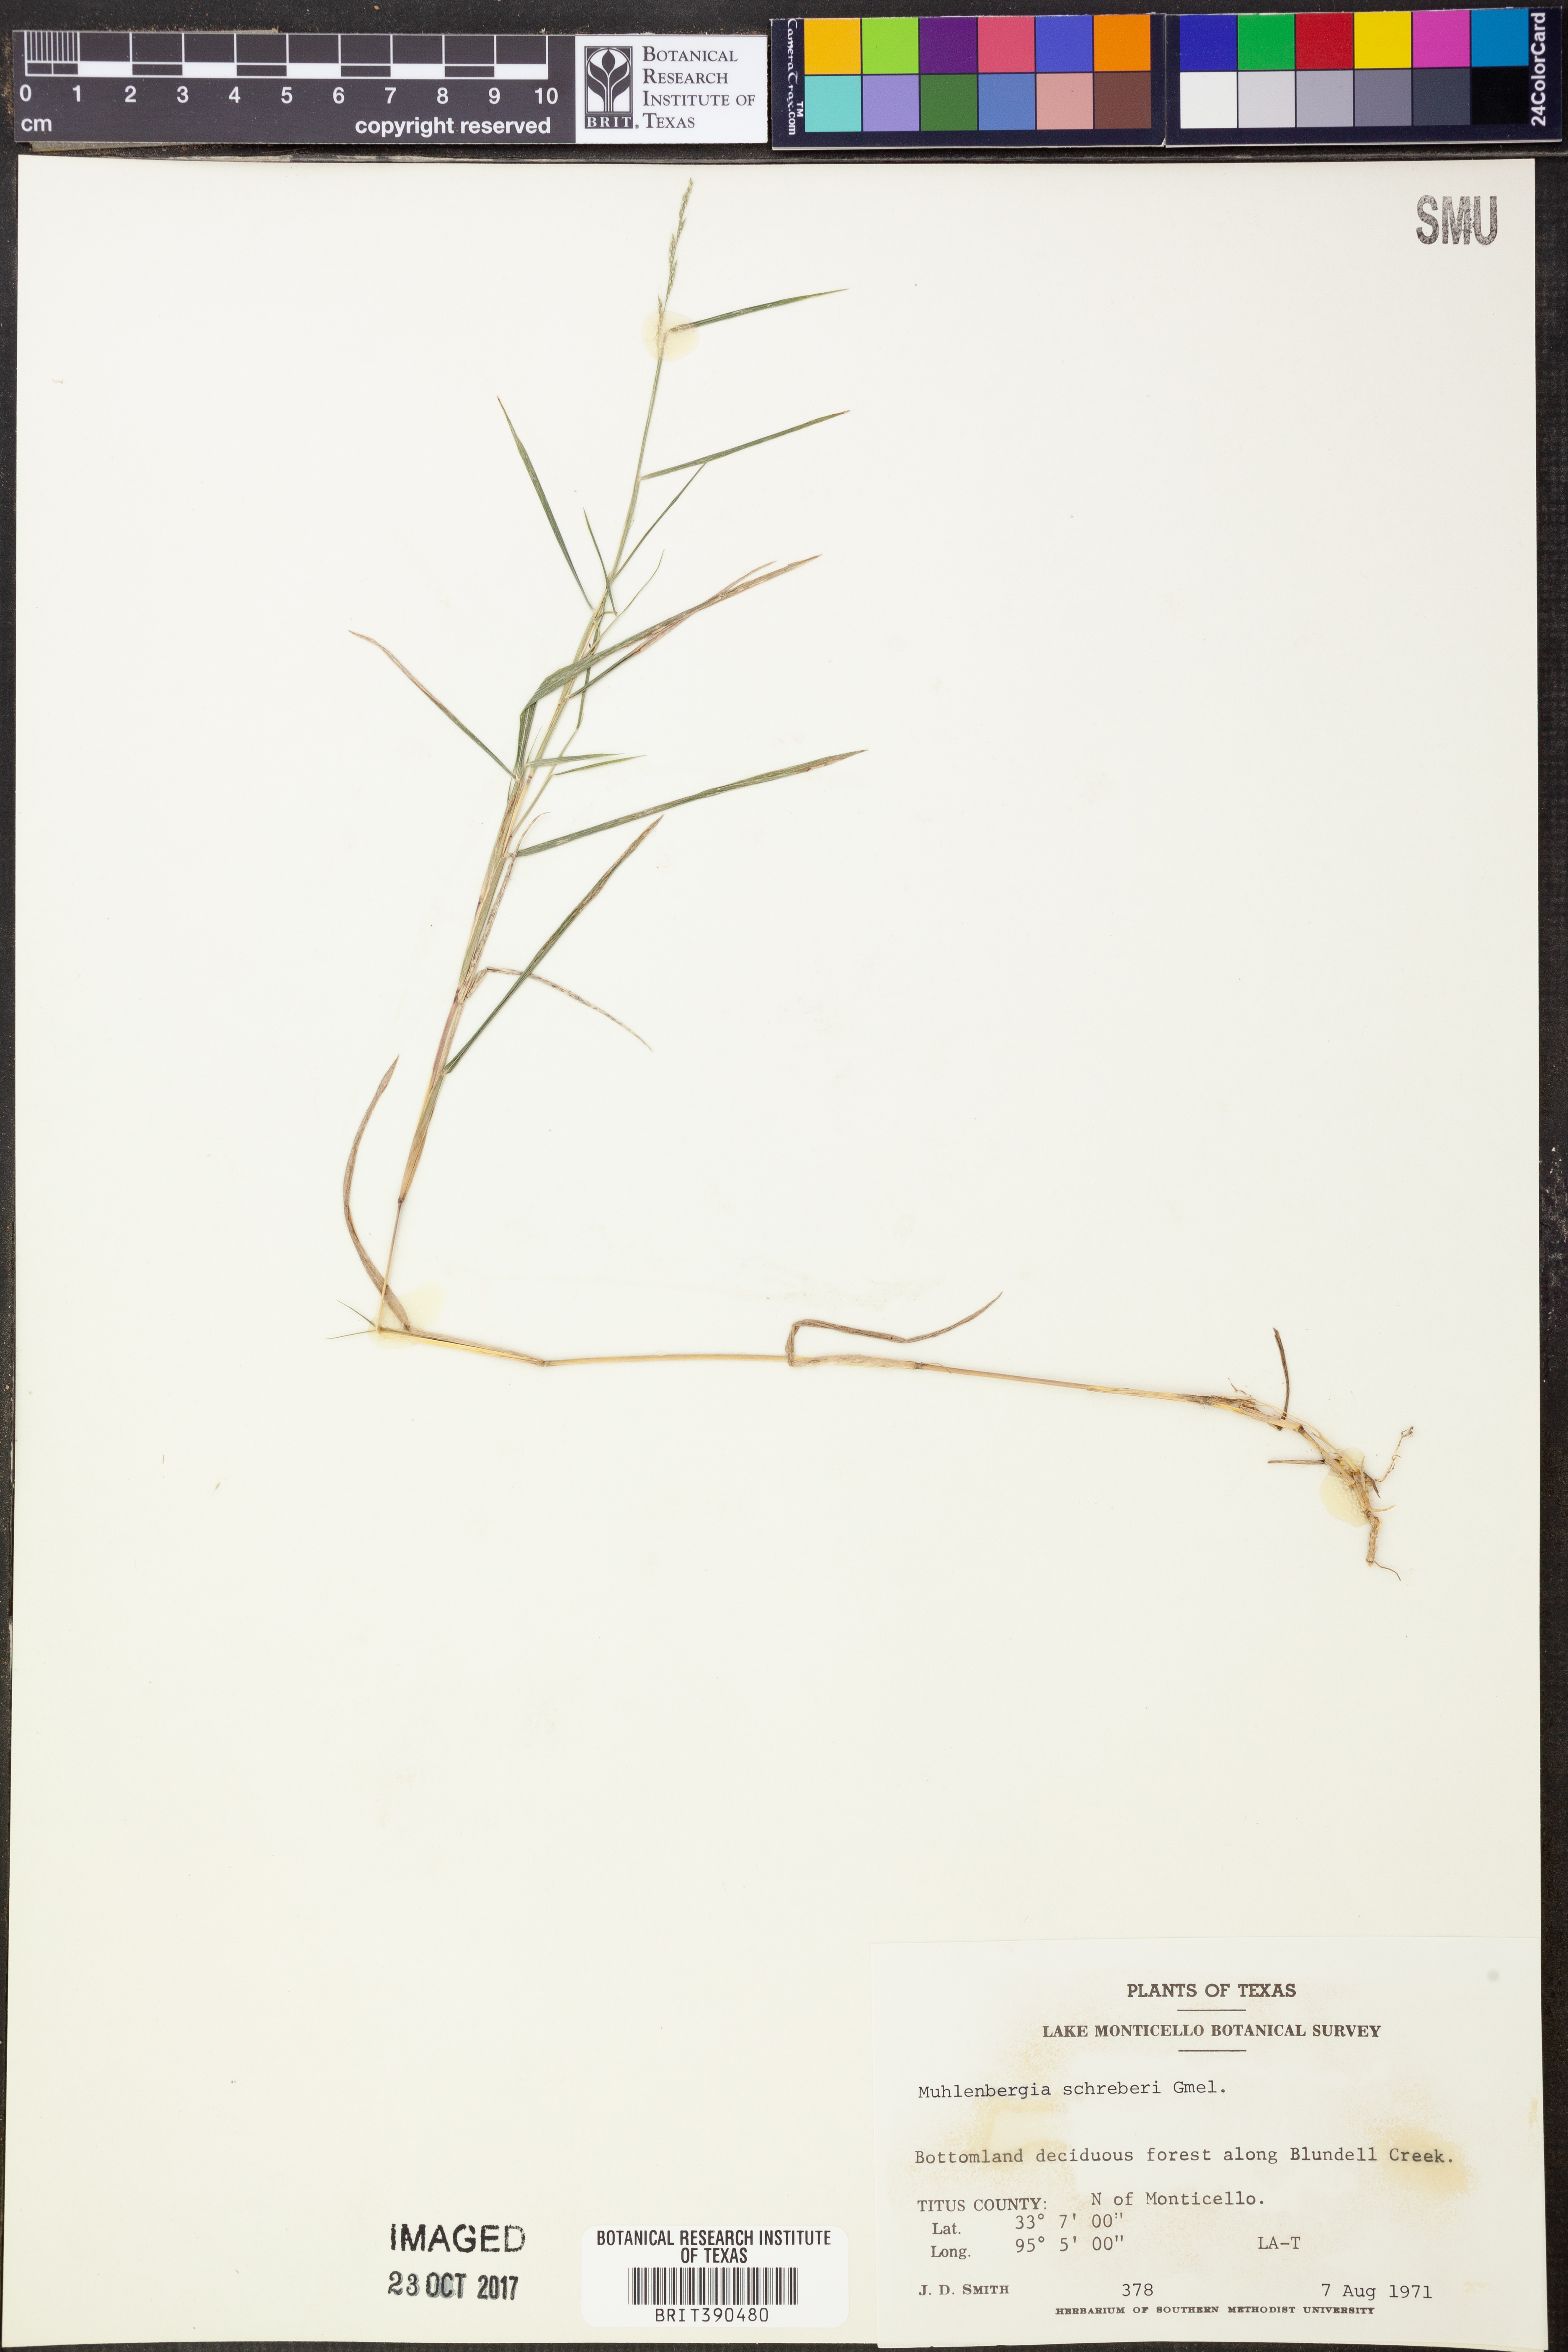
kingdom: Plantae
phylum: Tracheophyta
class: Liliopsida
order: Poales
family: Poaceae
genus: Muhlenbergia
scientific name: Muhlenbergia schreberi
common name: Nimblewill
